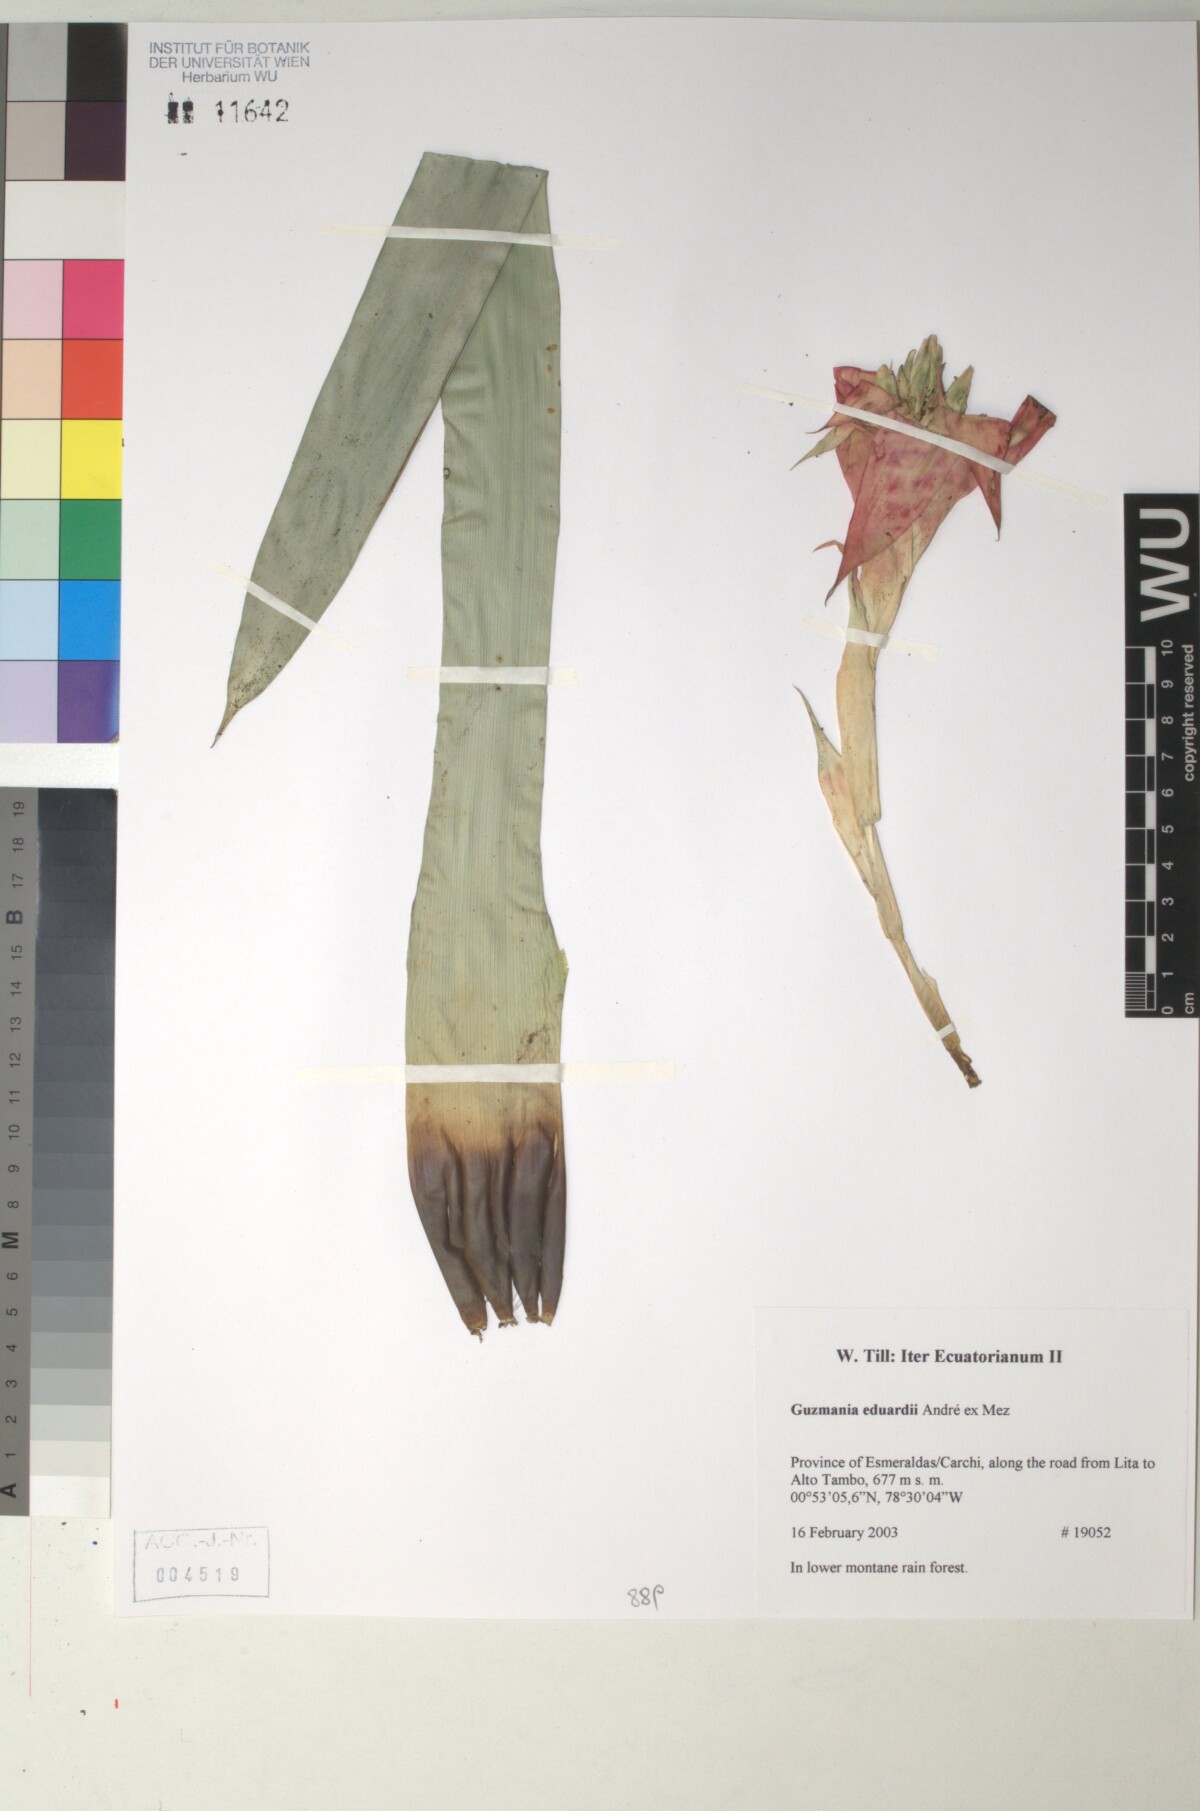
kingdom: Plantae
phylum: Tracheophyta
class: Liliopsida
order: Poales
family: Bromeliaceae
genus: Guzmania
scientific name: Guzmania eduardi
